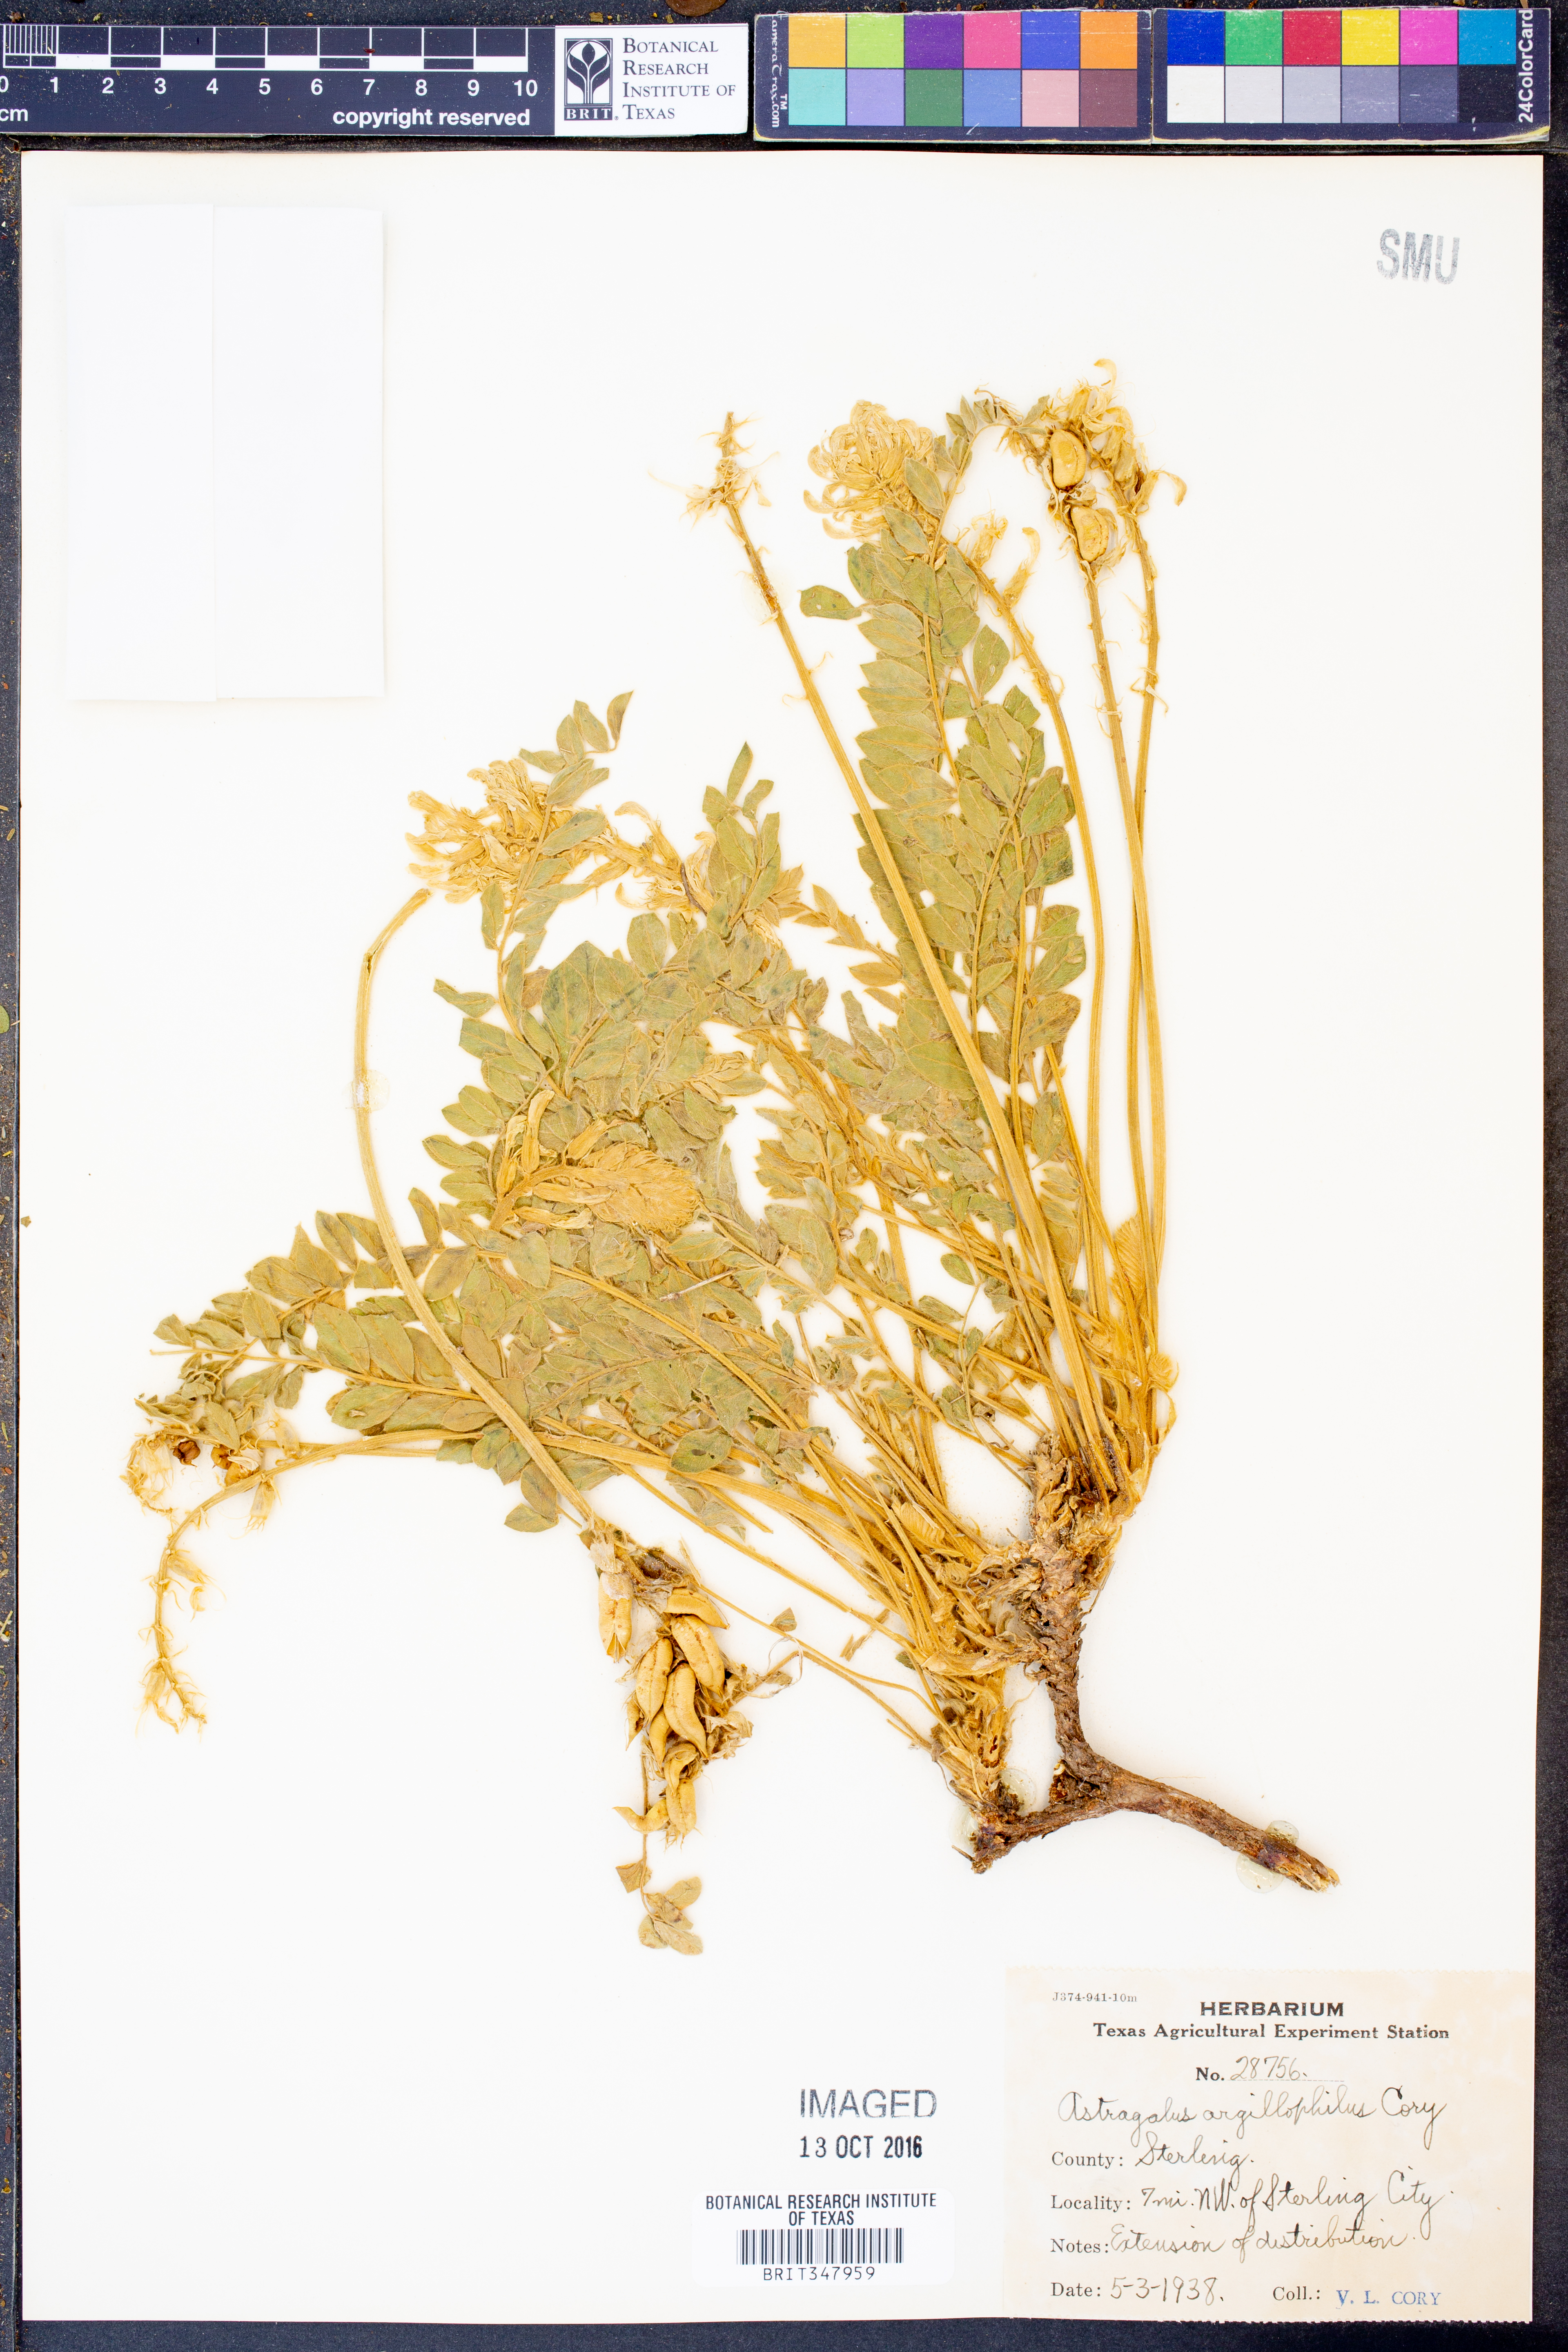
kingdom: Plantae
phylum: Tracheophyta
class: Magnoliopsida
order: Fabales
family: Fabaceae
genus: Astragalus
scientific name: Astragalus mollissimus
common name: Woolly locoweed
